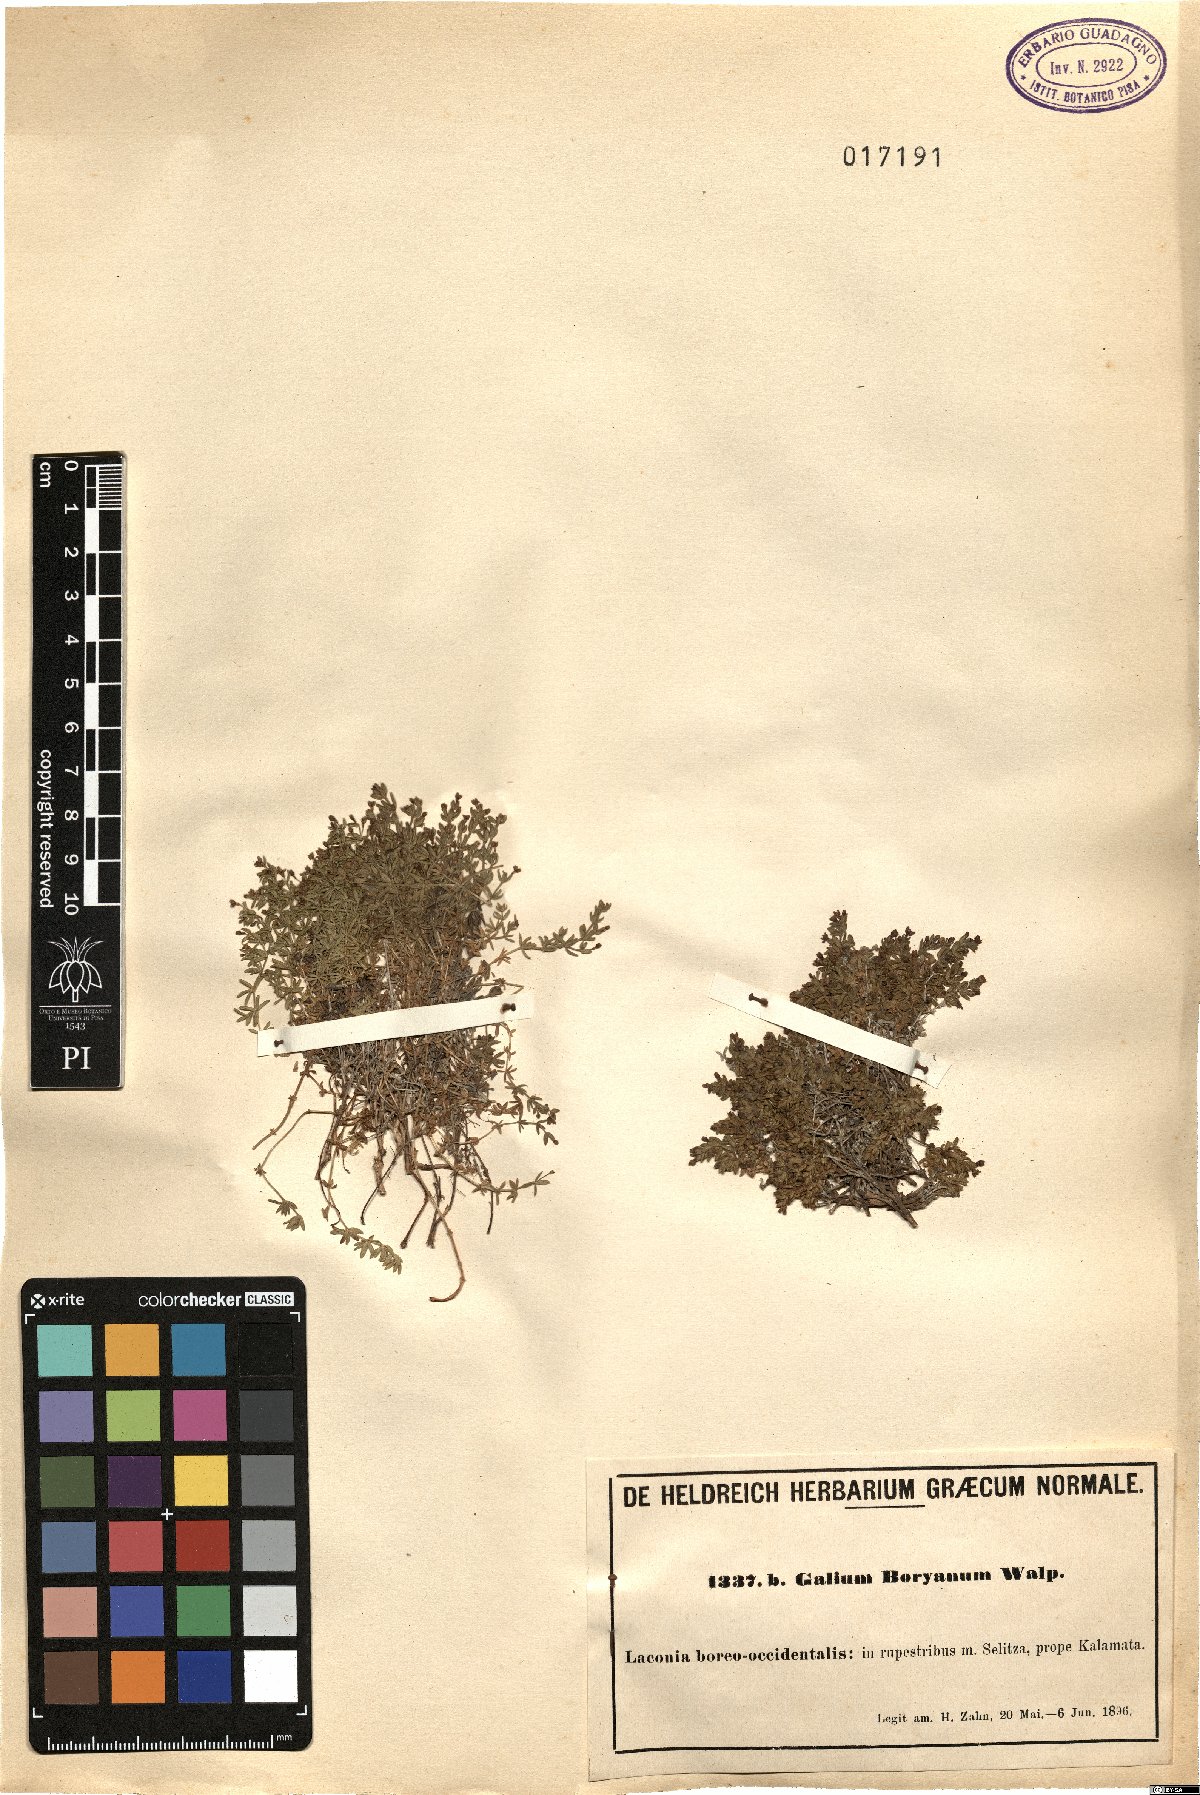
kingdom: Plantae
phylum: Tracheophyta
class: Magnoliopsida
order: Gentianales
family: Rubiaceae
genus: Thliphthisa
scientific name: Thliphthisa pusilla
